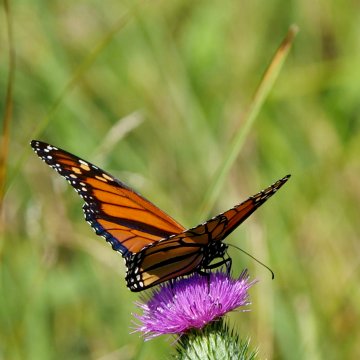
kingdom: Animalia
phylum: Arthropoda
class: Insecta
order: Lepidoptera
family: Nymphalidae
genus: Danaus
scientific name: Danaus plexippus
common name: Monarch
